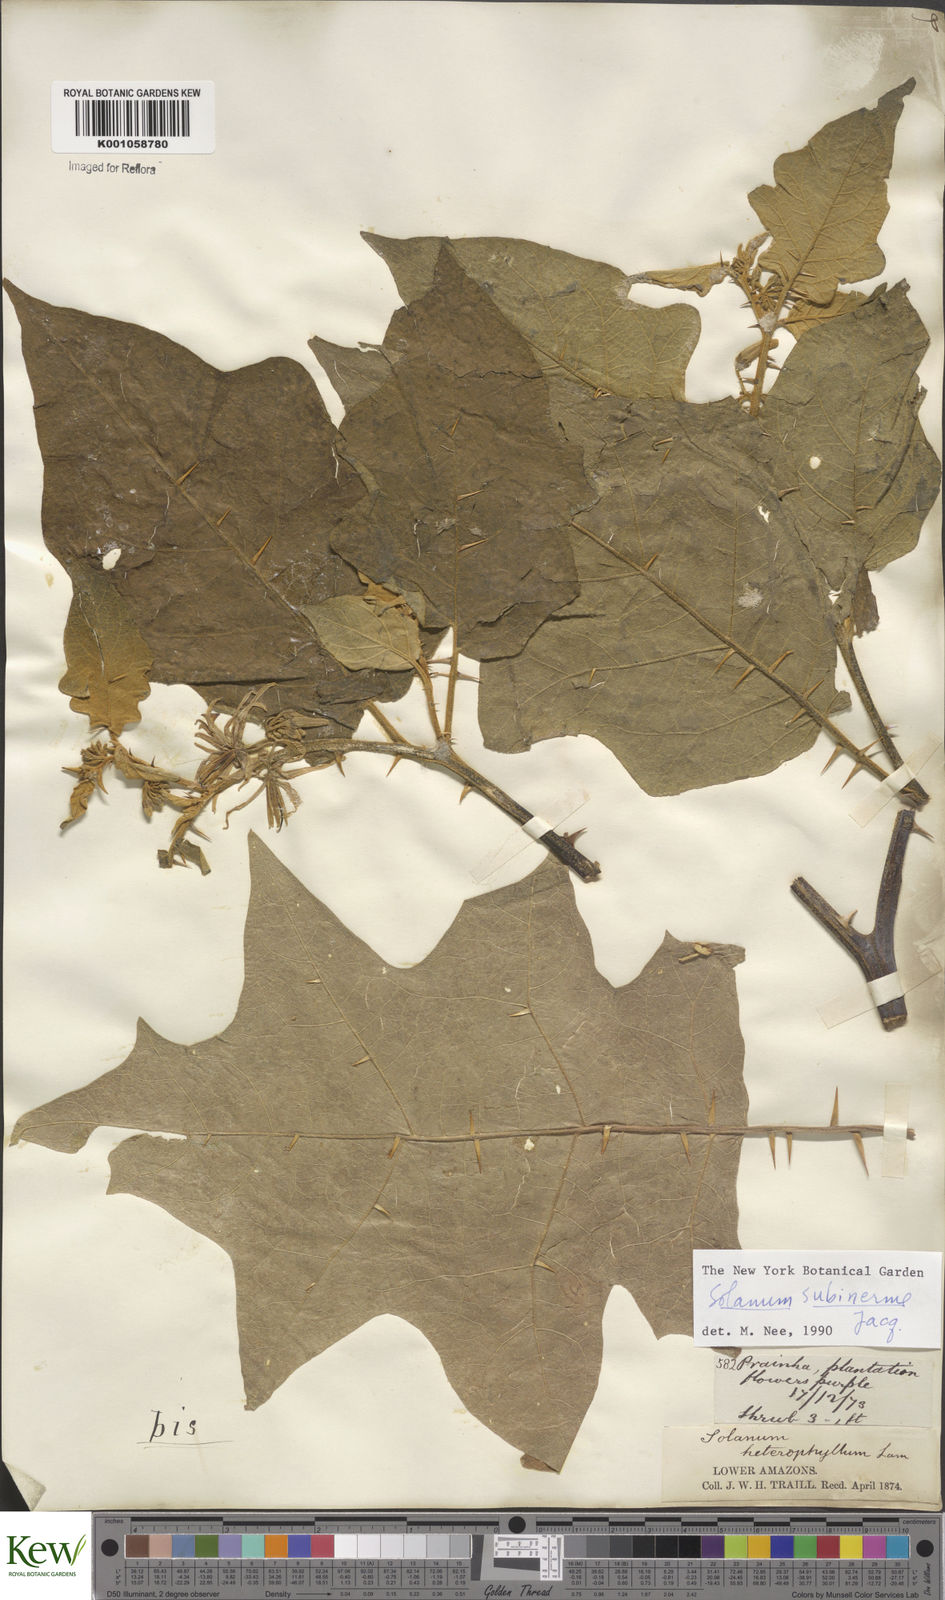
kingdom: Plantae
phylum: Tracheophyta
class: Magnoliopsida
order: Solanales
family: Solanaceae
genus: Solanum
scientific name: Solanum subinerme
